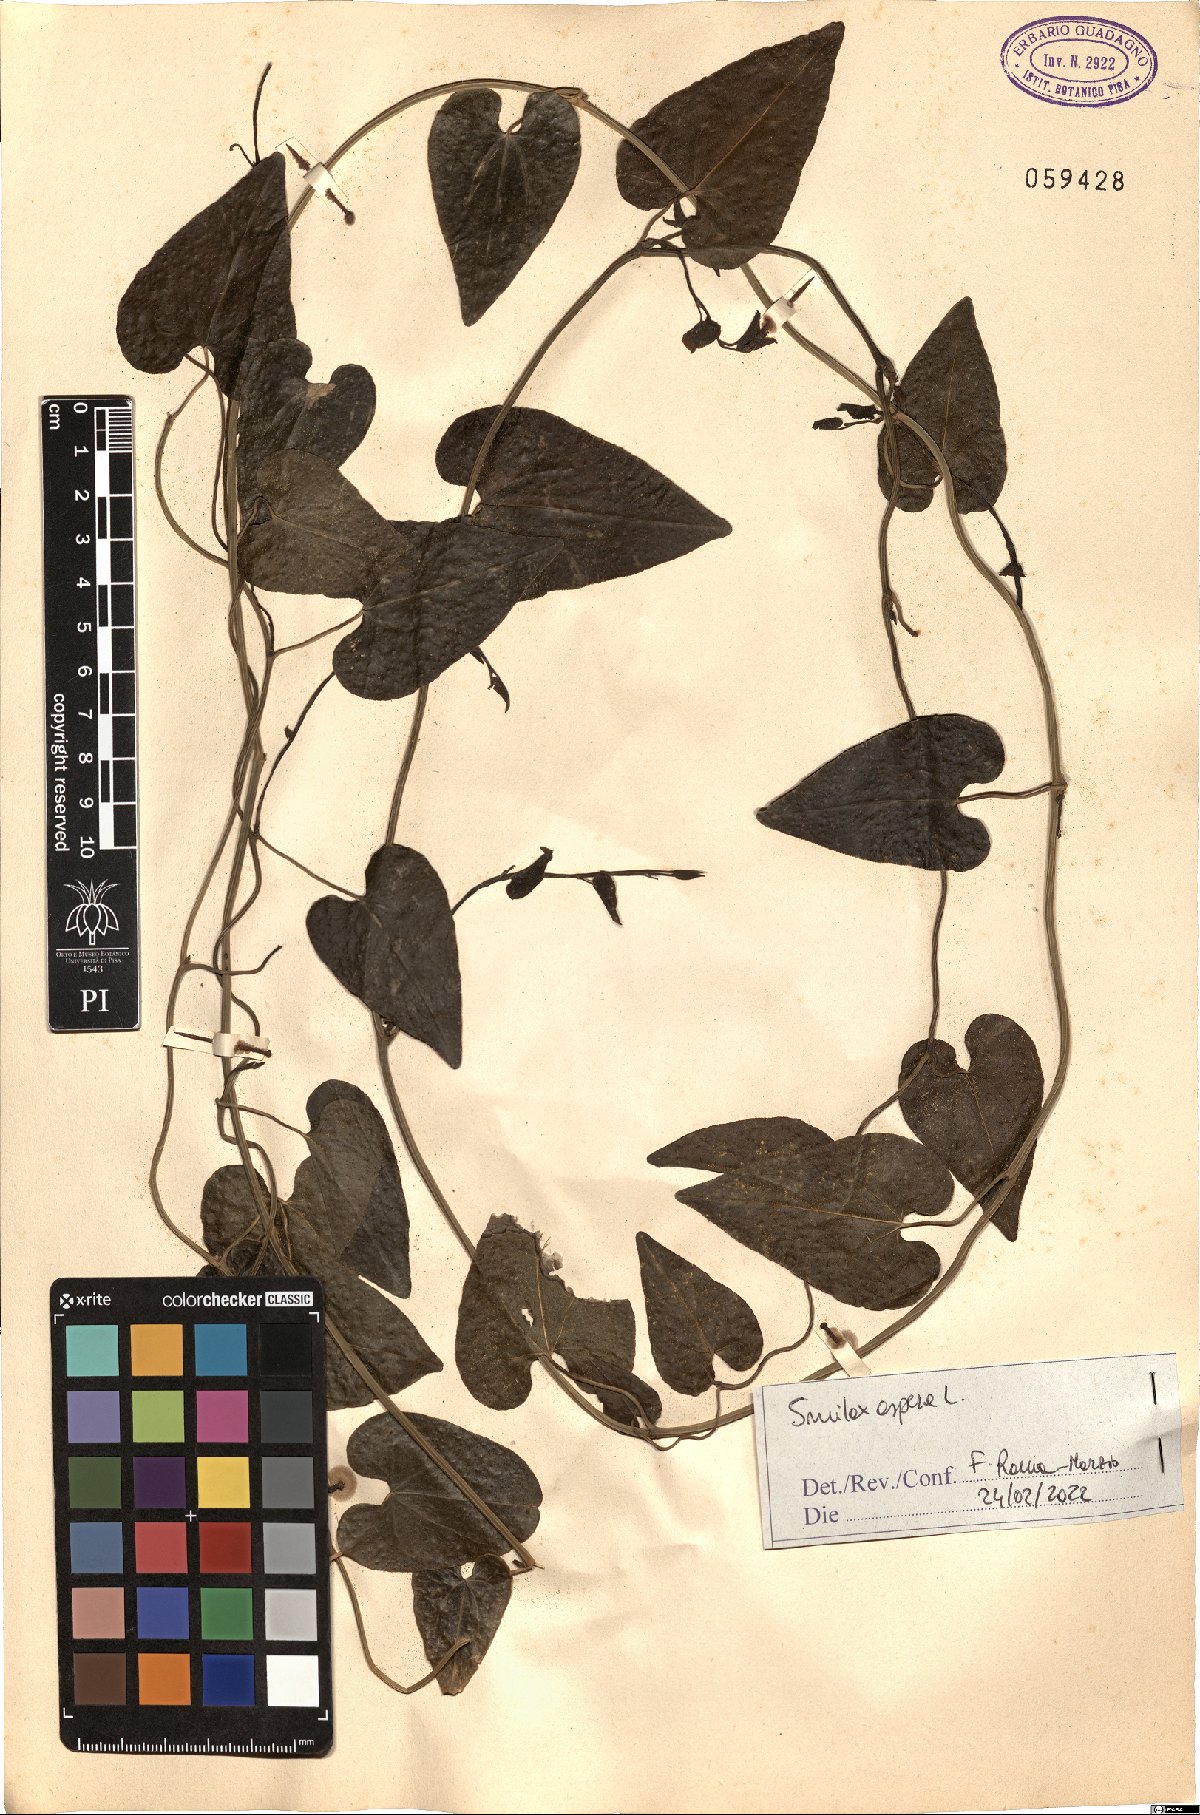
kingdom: Plantae
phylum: Tracheophyta
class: Liliopsida
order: Liliales
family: Smilacaceae
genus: Smilax
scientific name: Smilax aspera
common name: Common smilax
